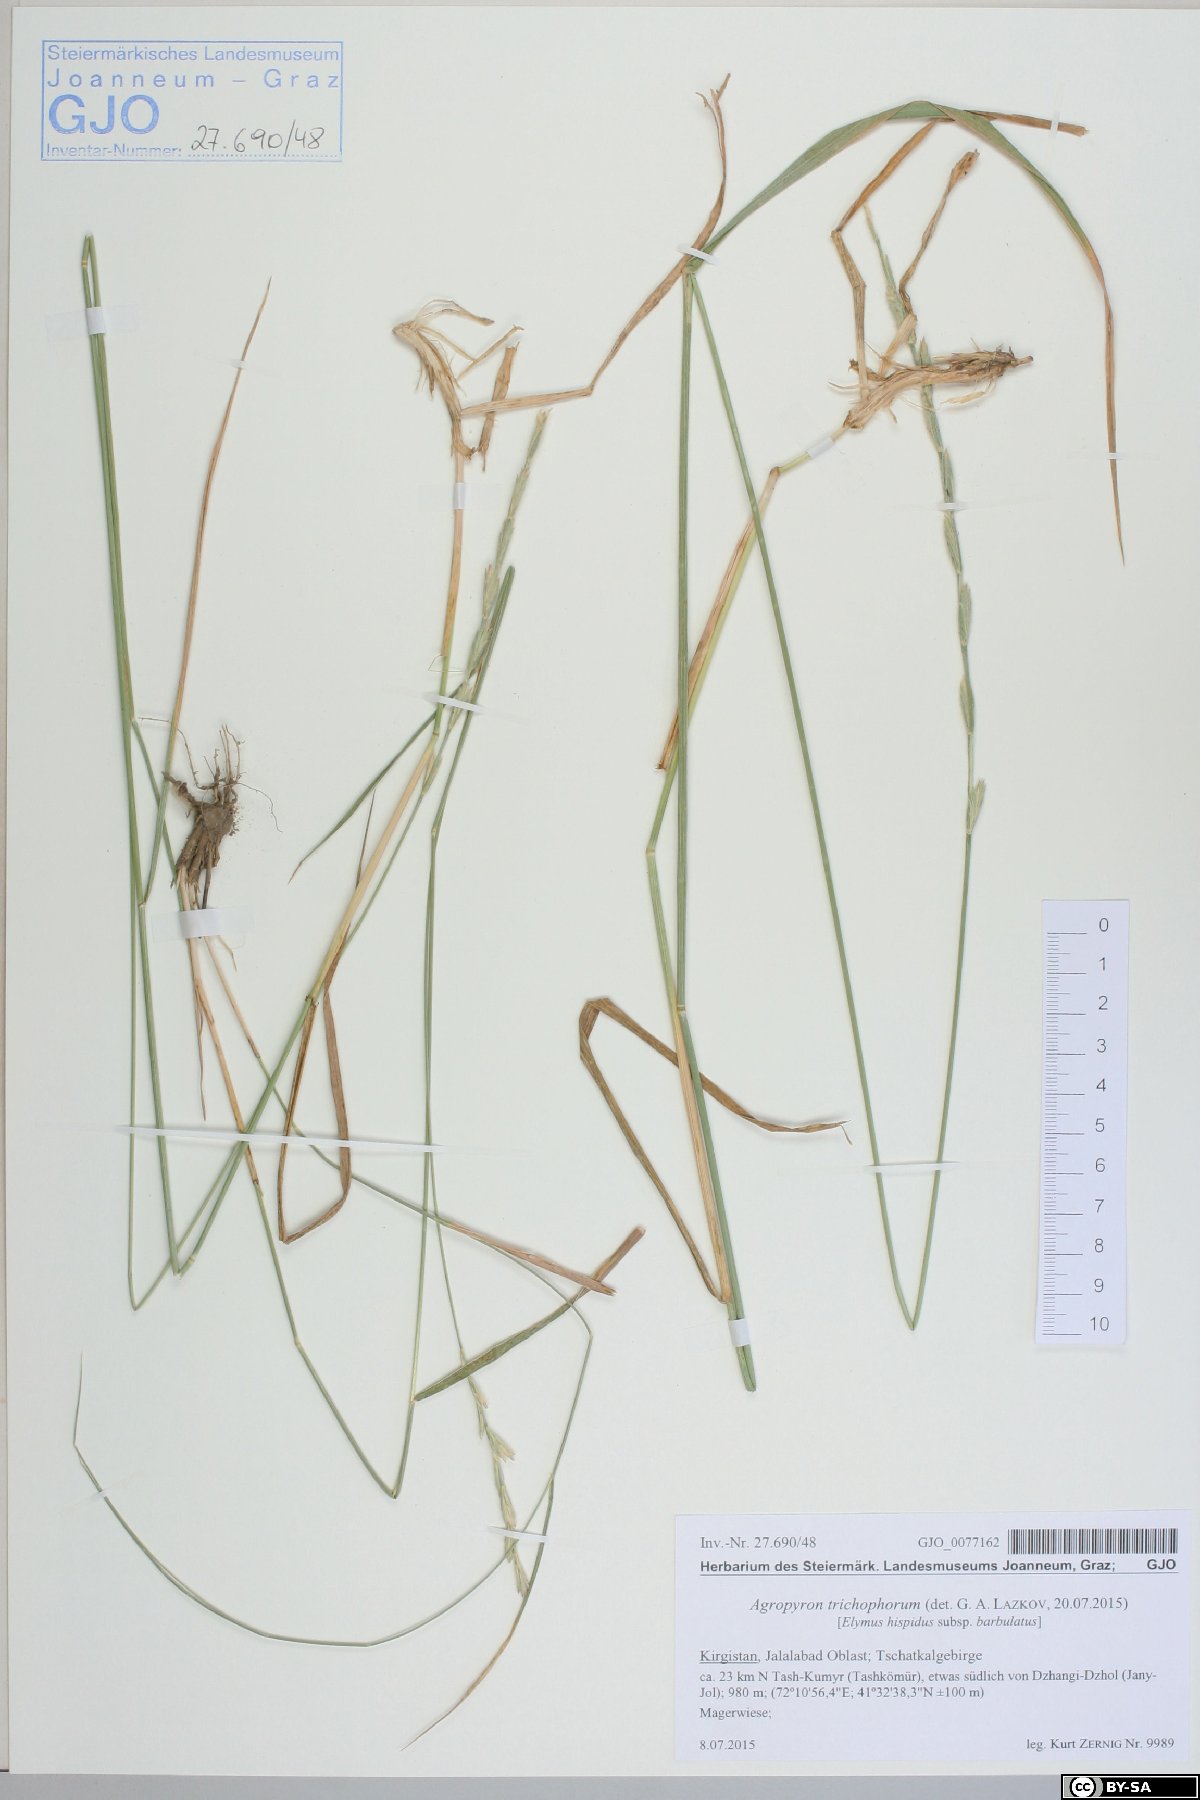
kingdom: Plantae
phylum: Tracheophyta
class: Liliopsida
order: Poales
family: Poaceae
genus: Thinopyrum
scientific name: Thinopyrum intermedium
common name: Intermediate wheatgrass
